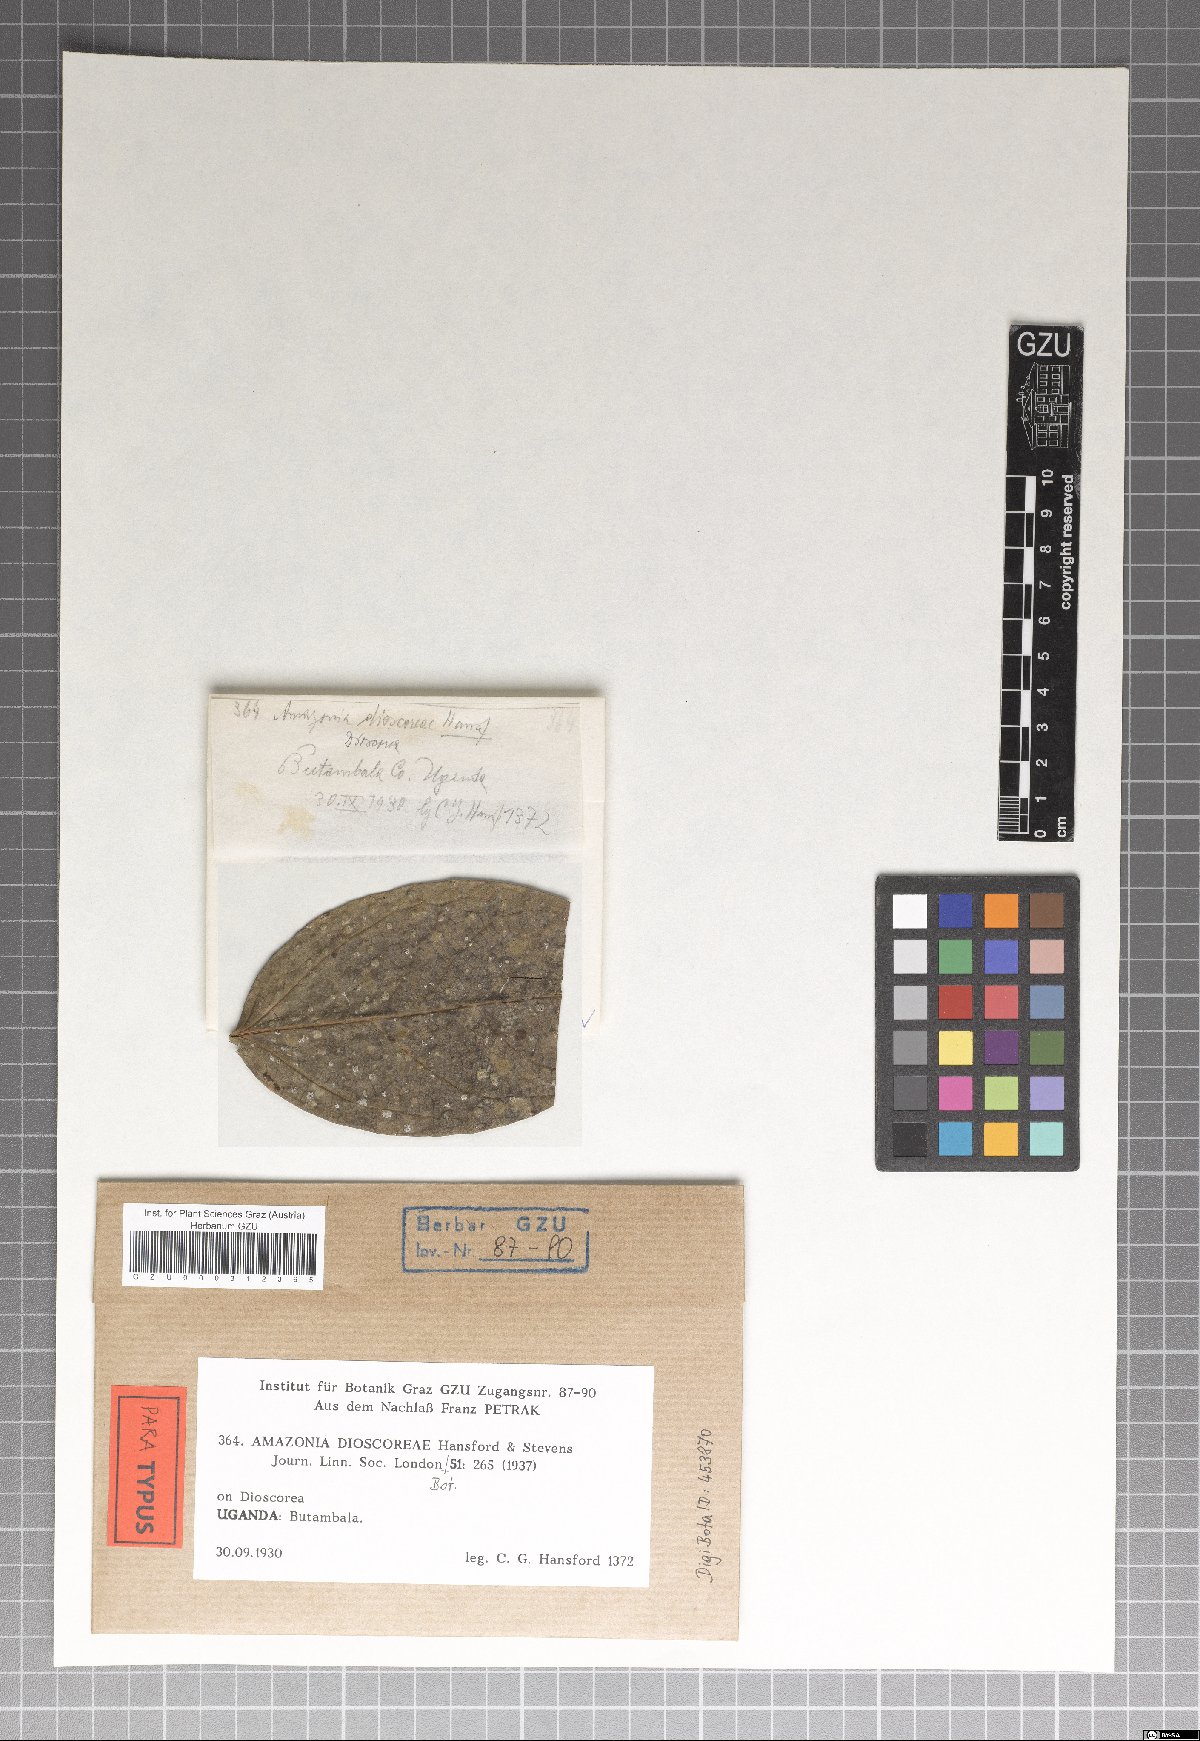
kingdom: Fungi
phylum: Ascomycota
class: Sordariomycetes
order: Meliolales
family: Meliolaceae
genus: Amazonia
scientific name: Amazonia dioscoreae
